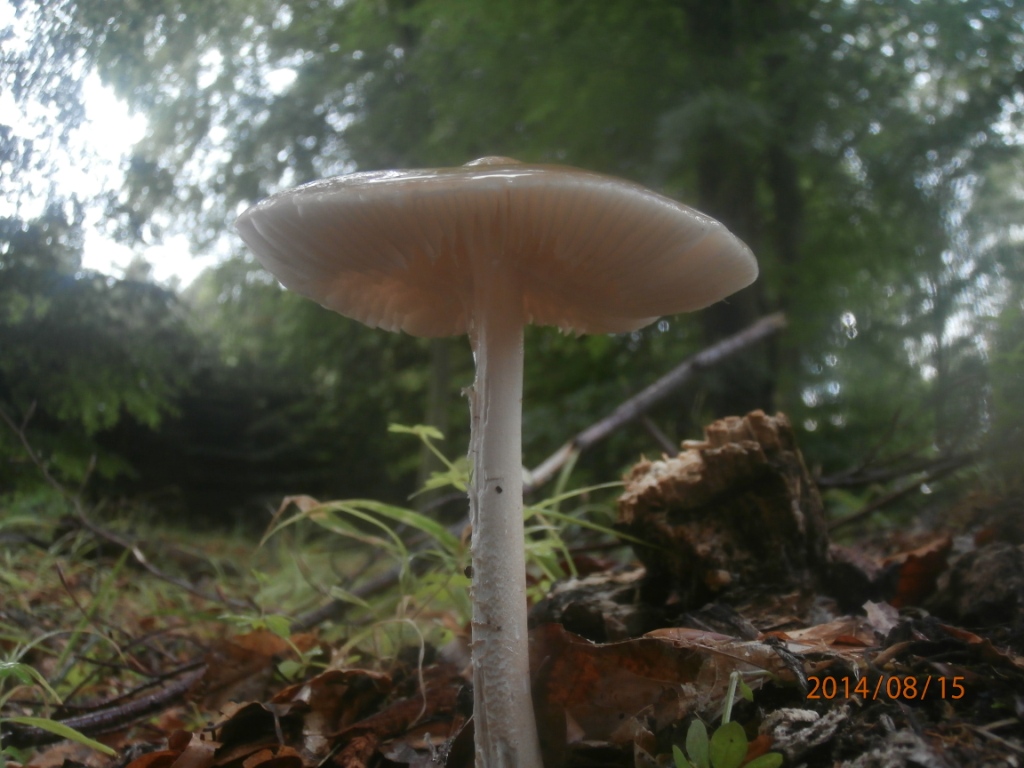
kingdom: Fungi
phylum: Basidiomycota
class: Agaricomycetes
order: Agaricales
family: Physalacriaceae
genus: Hymenopellis
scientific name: Hymenopellis radicata
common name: almindelig pælerodshat
